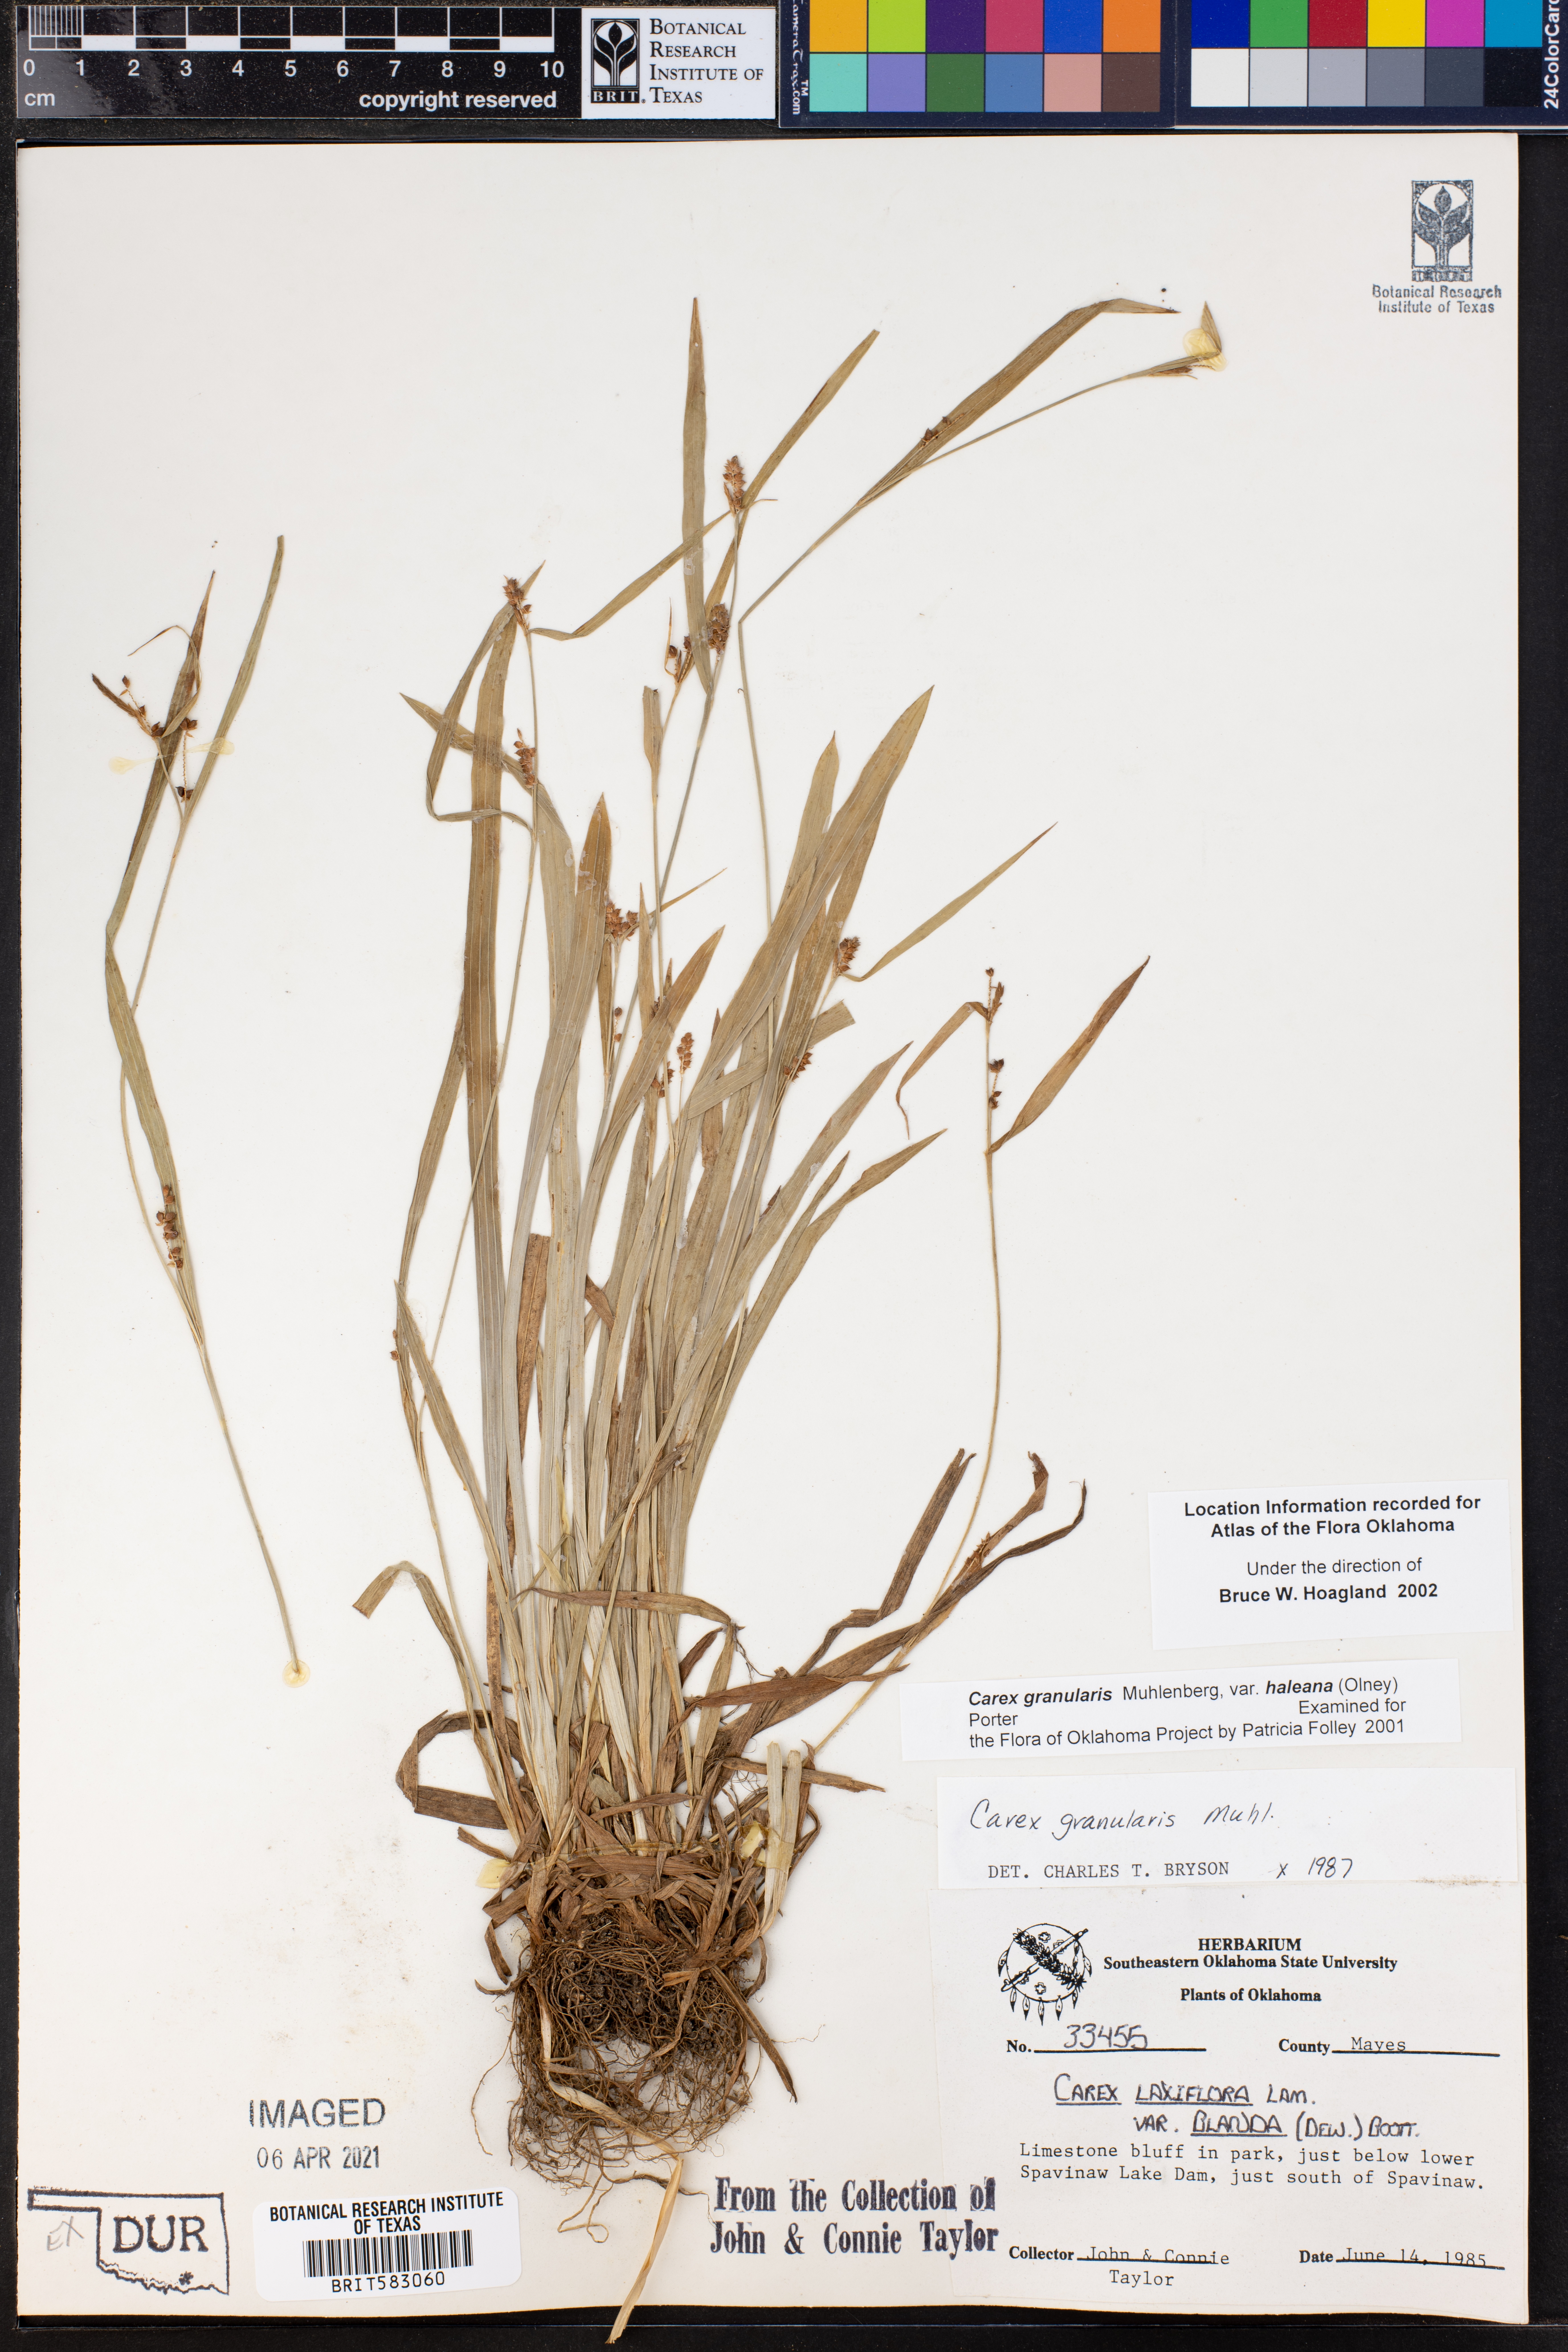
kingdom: Plantae
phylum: Tracheophyta
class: Liliopsida
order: Poales
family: Cyperaceae
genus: Carex
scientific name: Carex granularis
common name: Granular sedge
